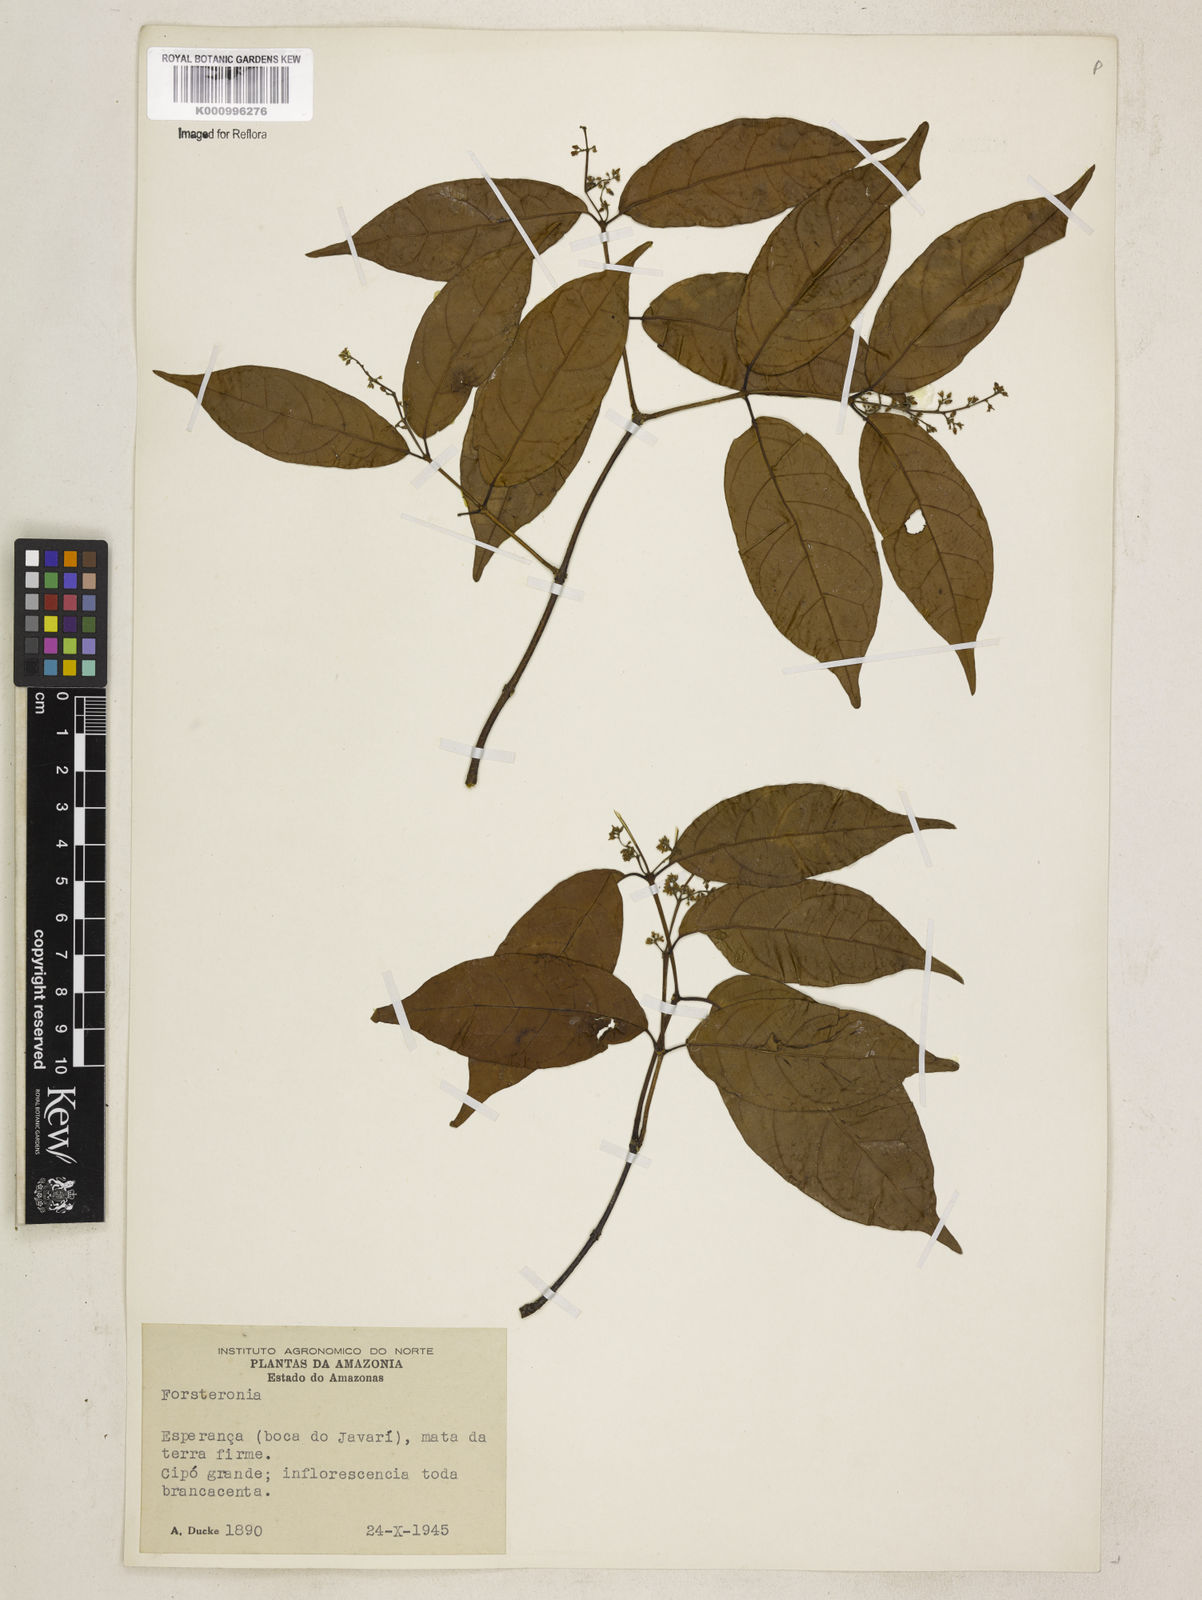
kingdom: Plantae
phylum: Tracheophyta
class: Magnoliopsida
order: Gentianales
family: Apocynaceae
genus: Forsteronia
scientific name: Forsteronia
